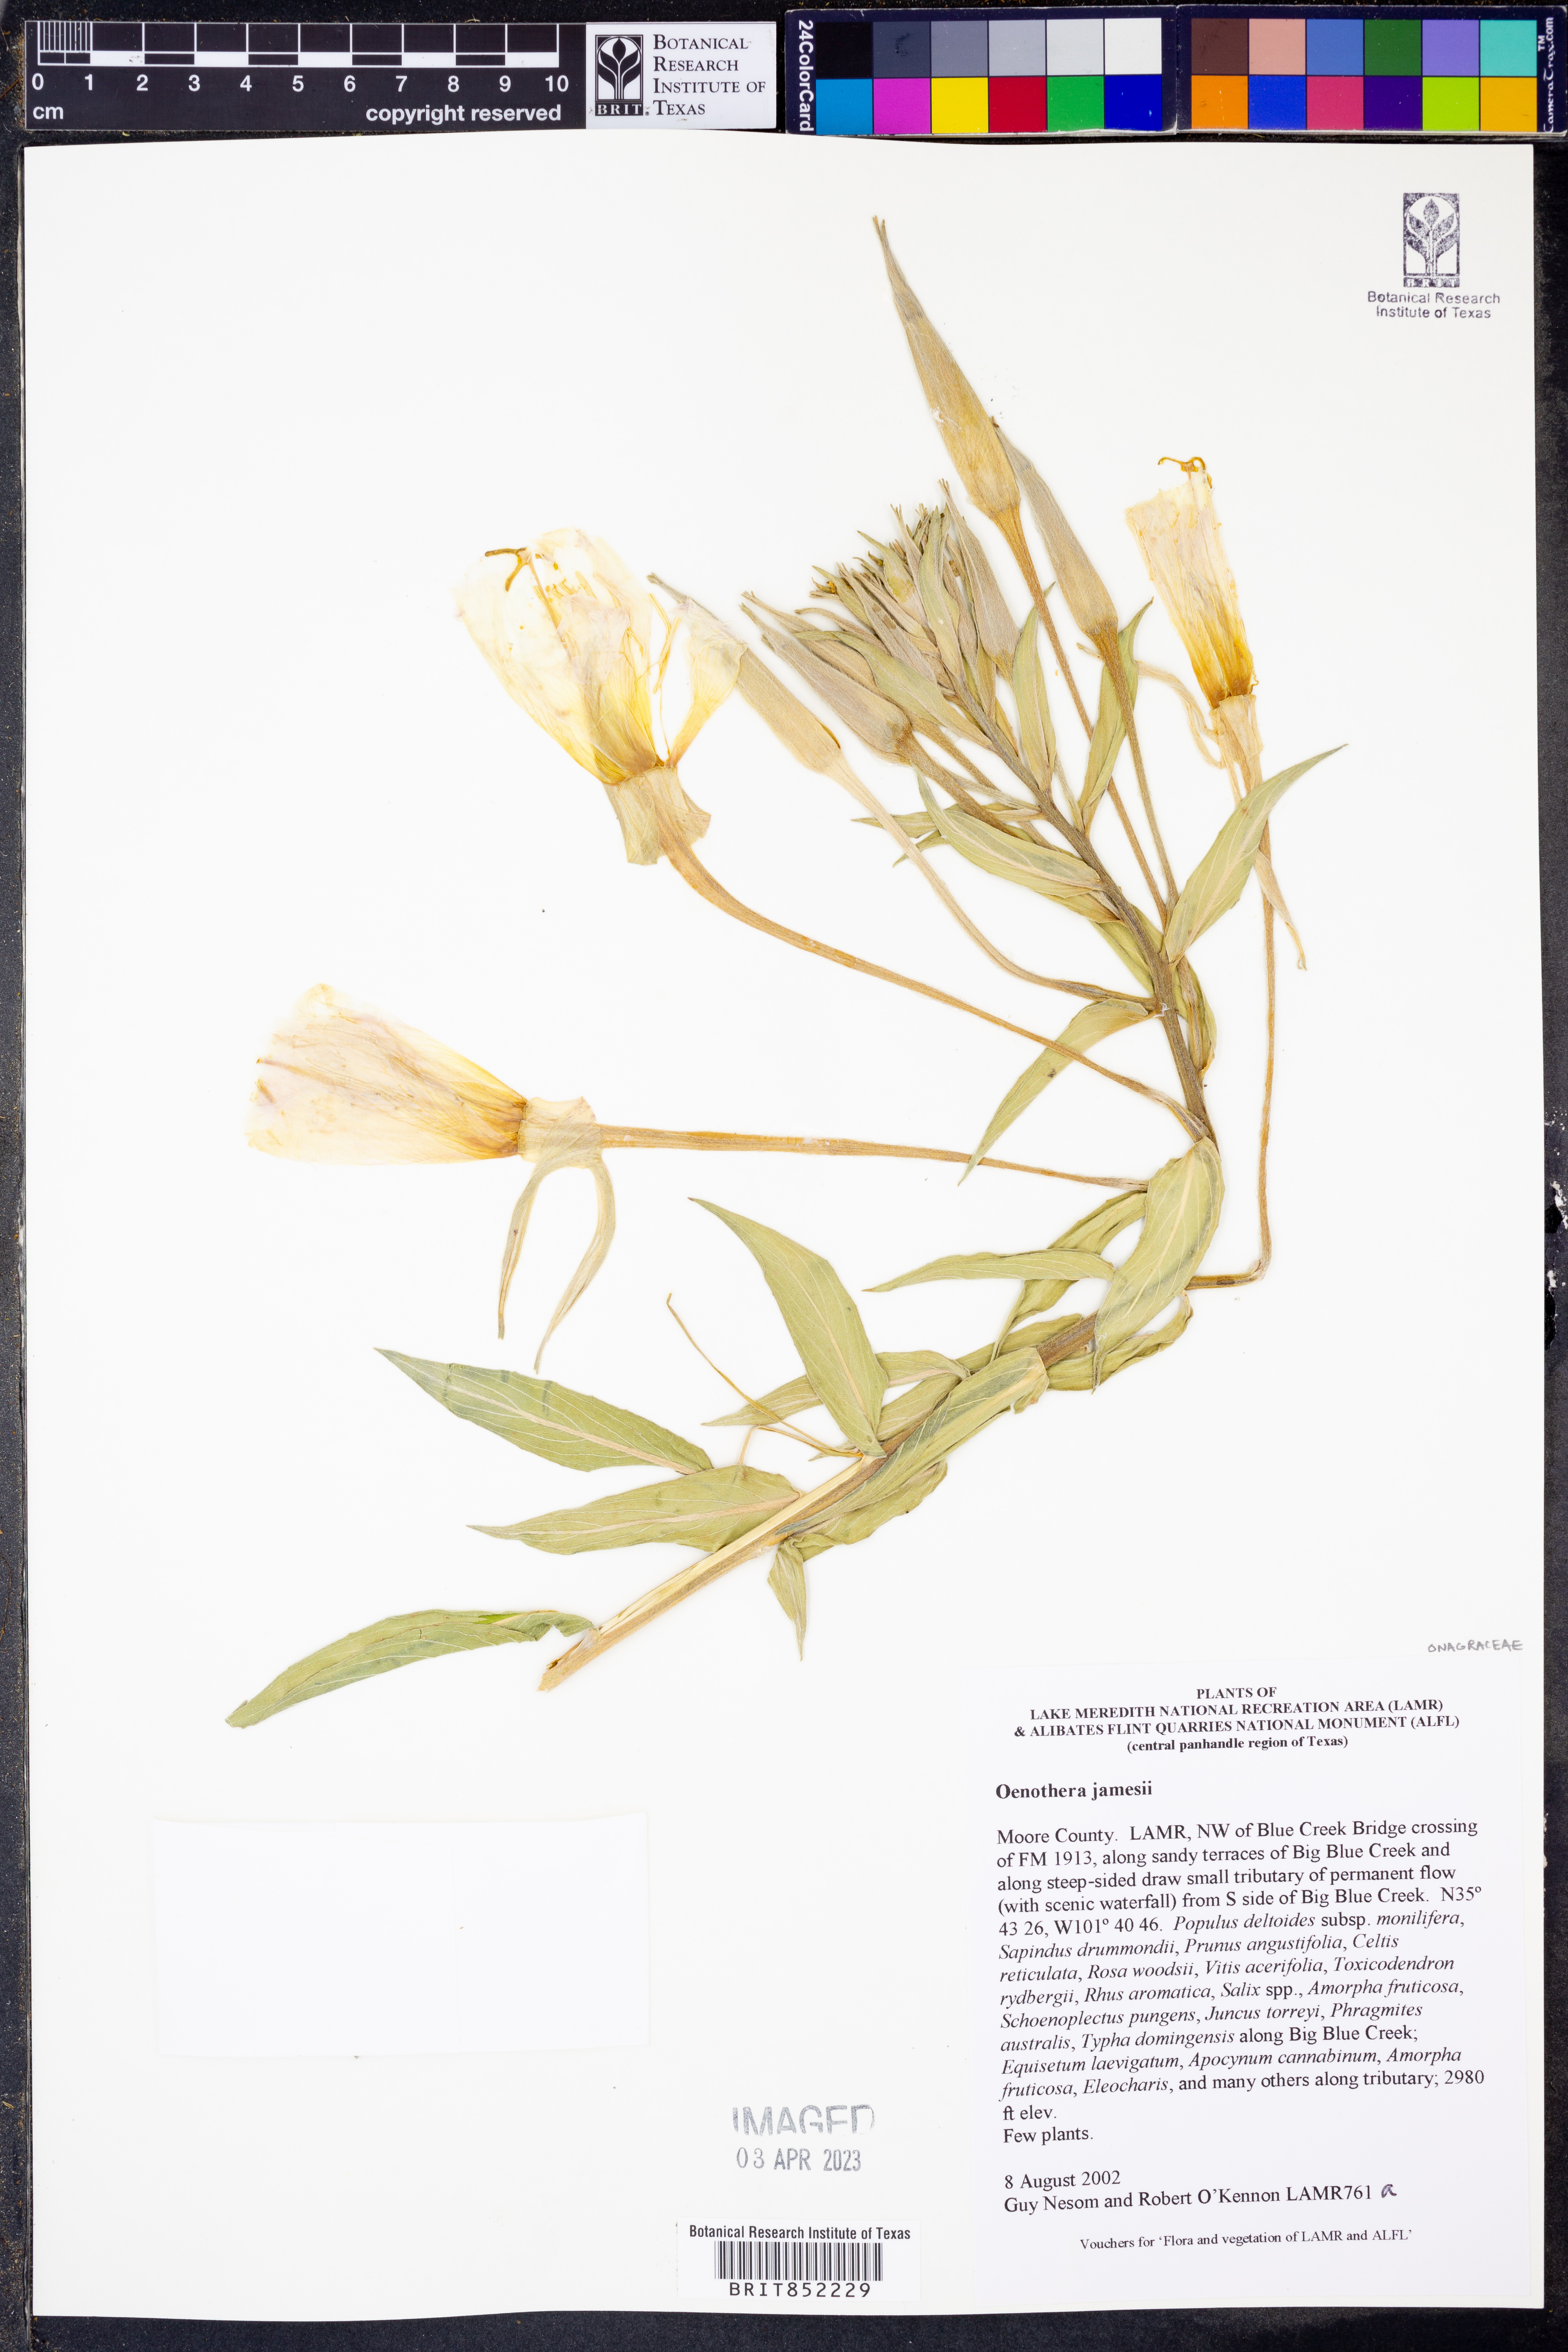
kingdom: Plantae
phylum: Tracheophyta
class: Magnoliopsida
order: Myrtales
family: Onagraceae
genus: Oenothera
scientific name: Oenothera jamesii
